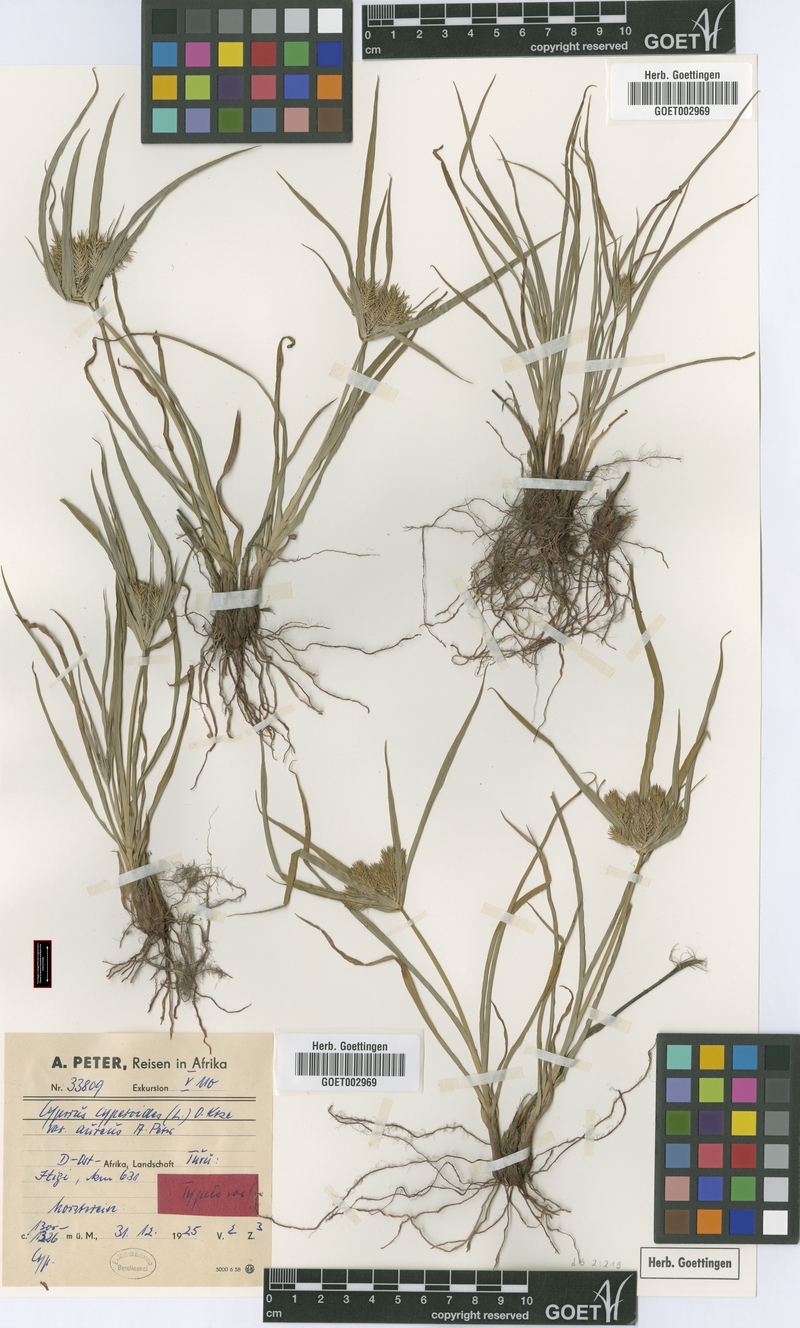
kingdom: Plantae
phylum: Tracheophyta
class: Liliopsida
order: Poales
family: Cyperaceae
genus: Cyperus
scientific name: Cyperus cyperoides
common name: Pacific island flat sedge
